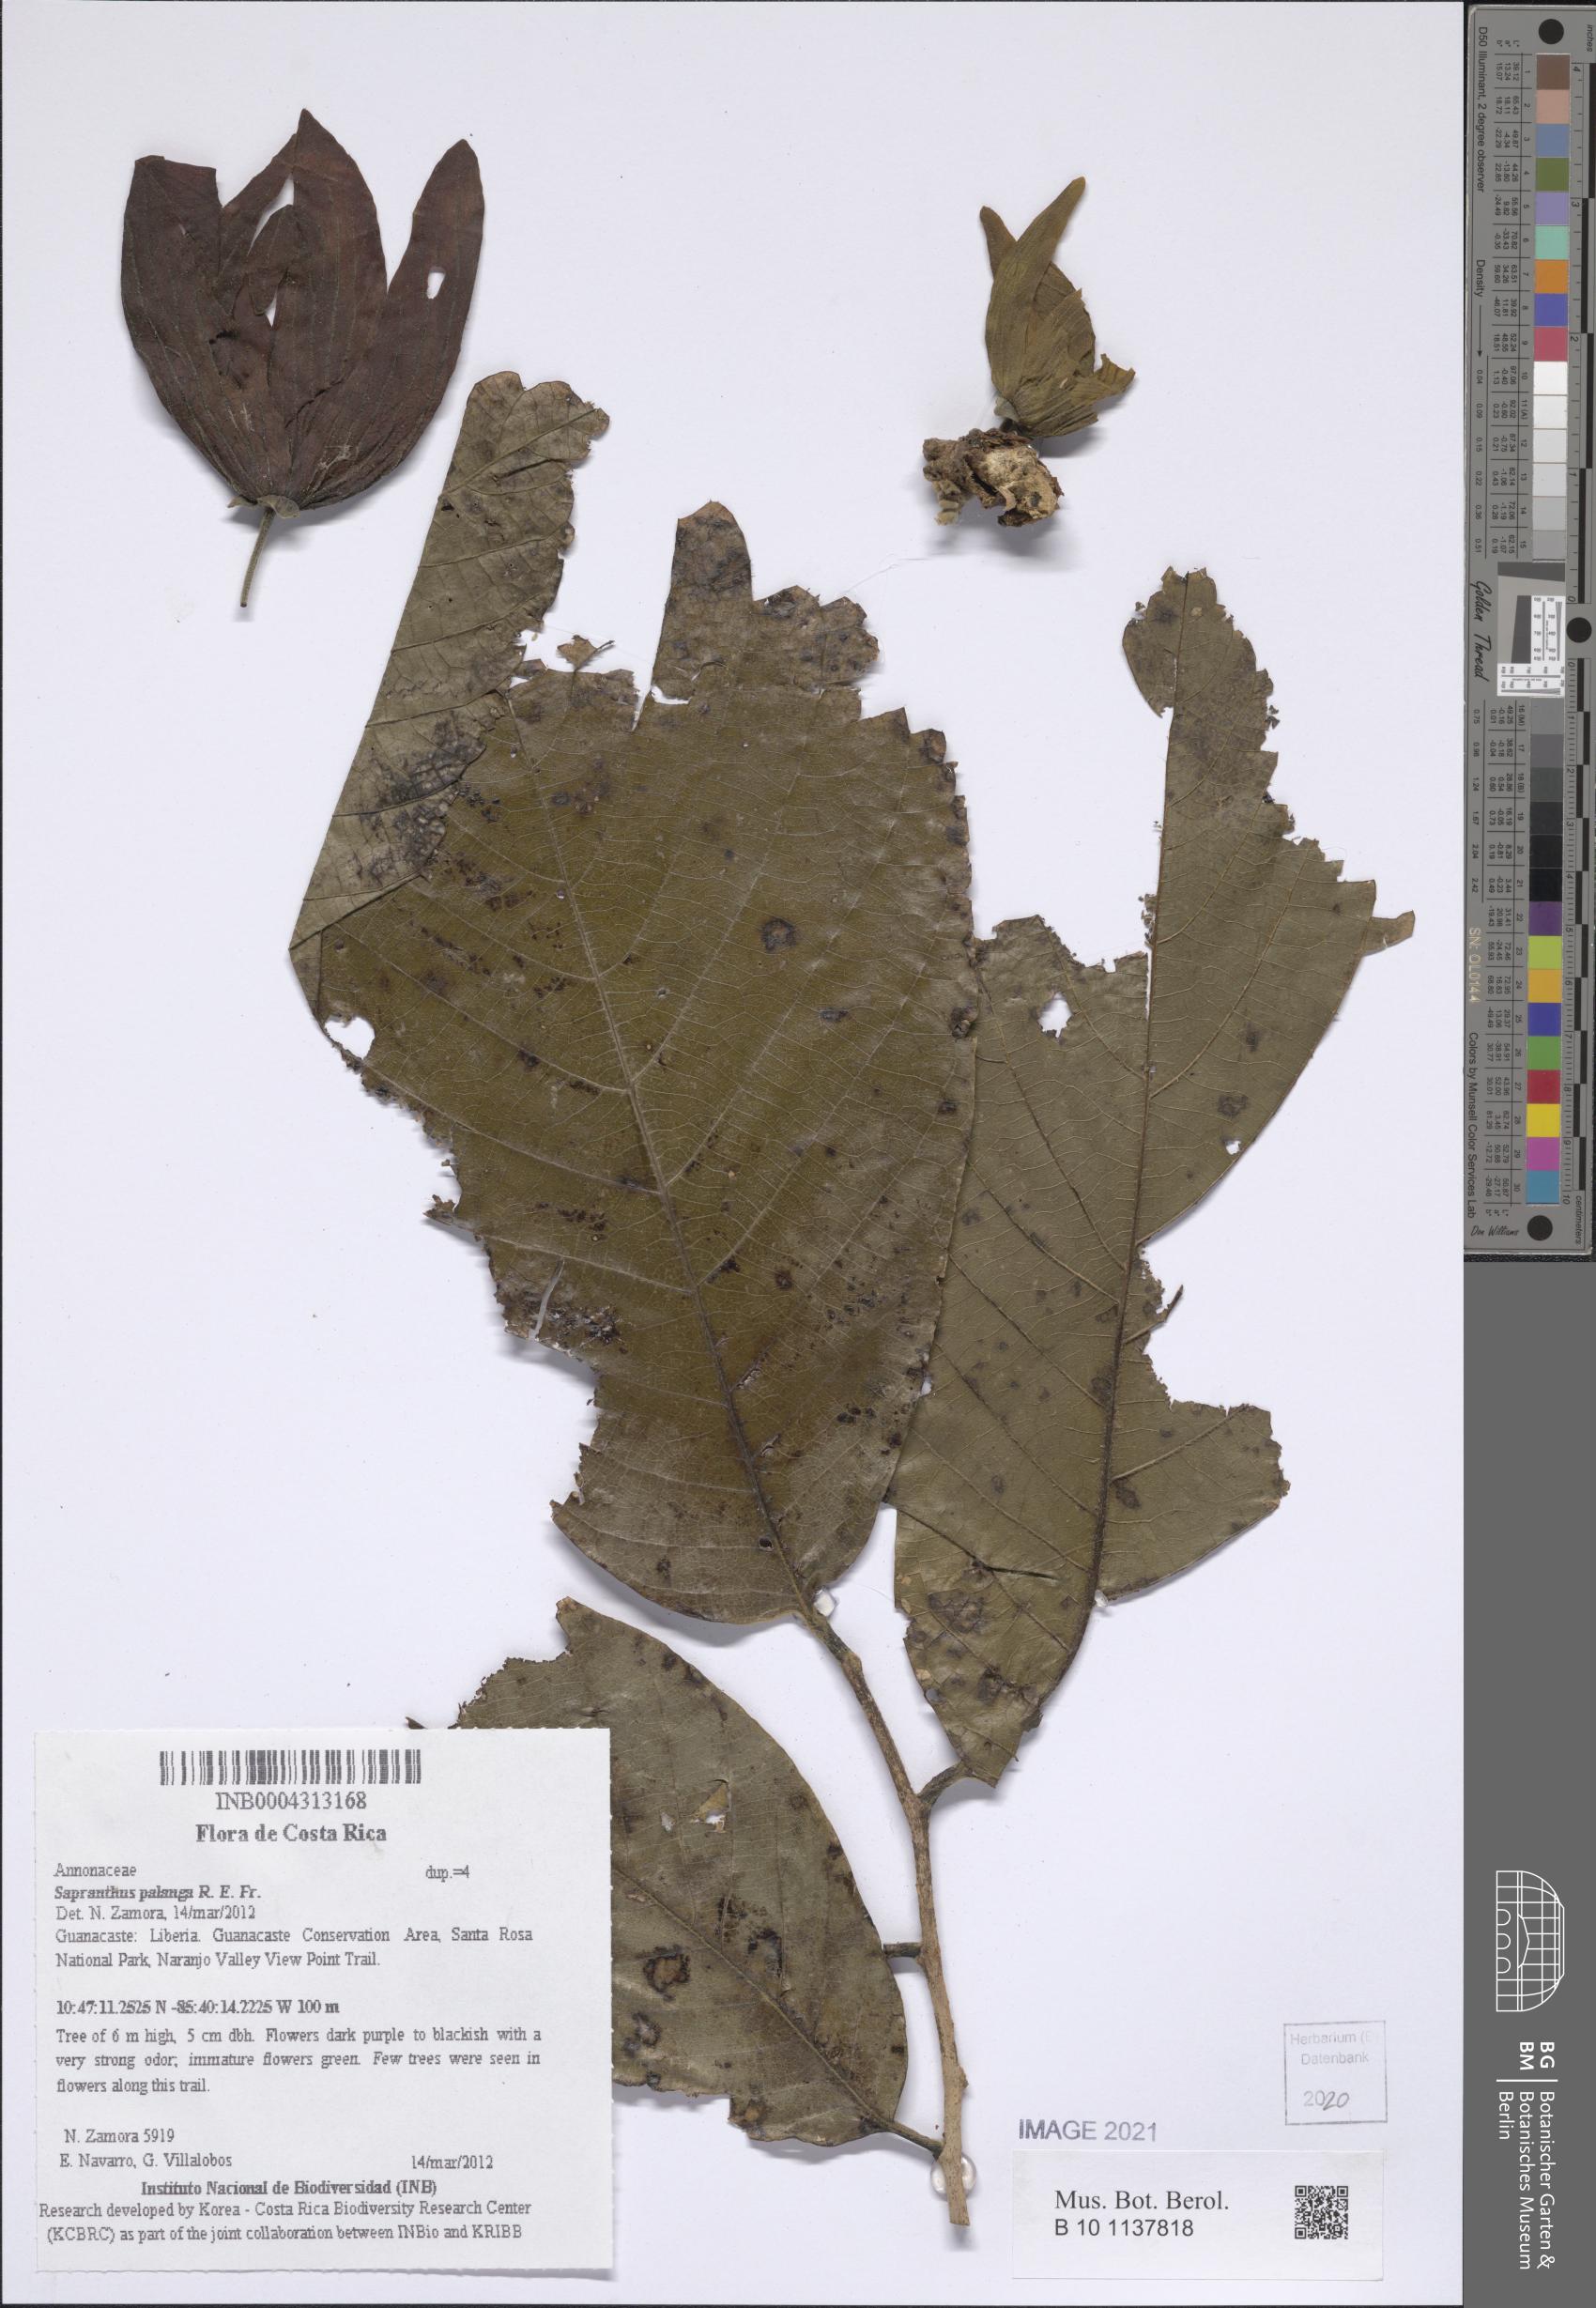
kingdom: Plantae
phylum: Tracheophyta
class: Magnoliopsida
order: Magnoliales
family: Annonaceae
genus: Sapranthus
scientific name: Sapranthus palanga
